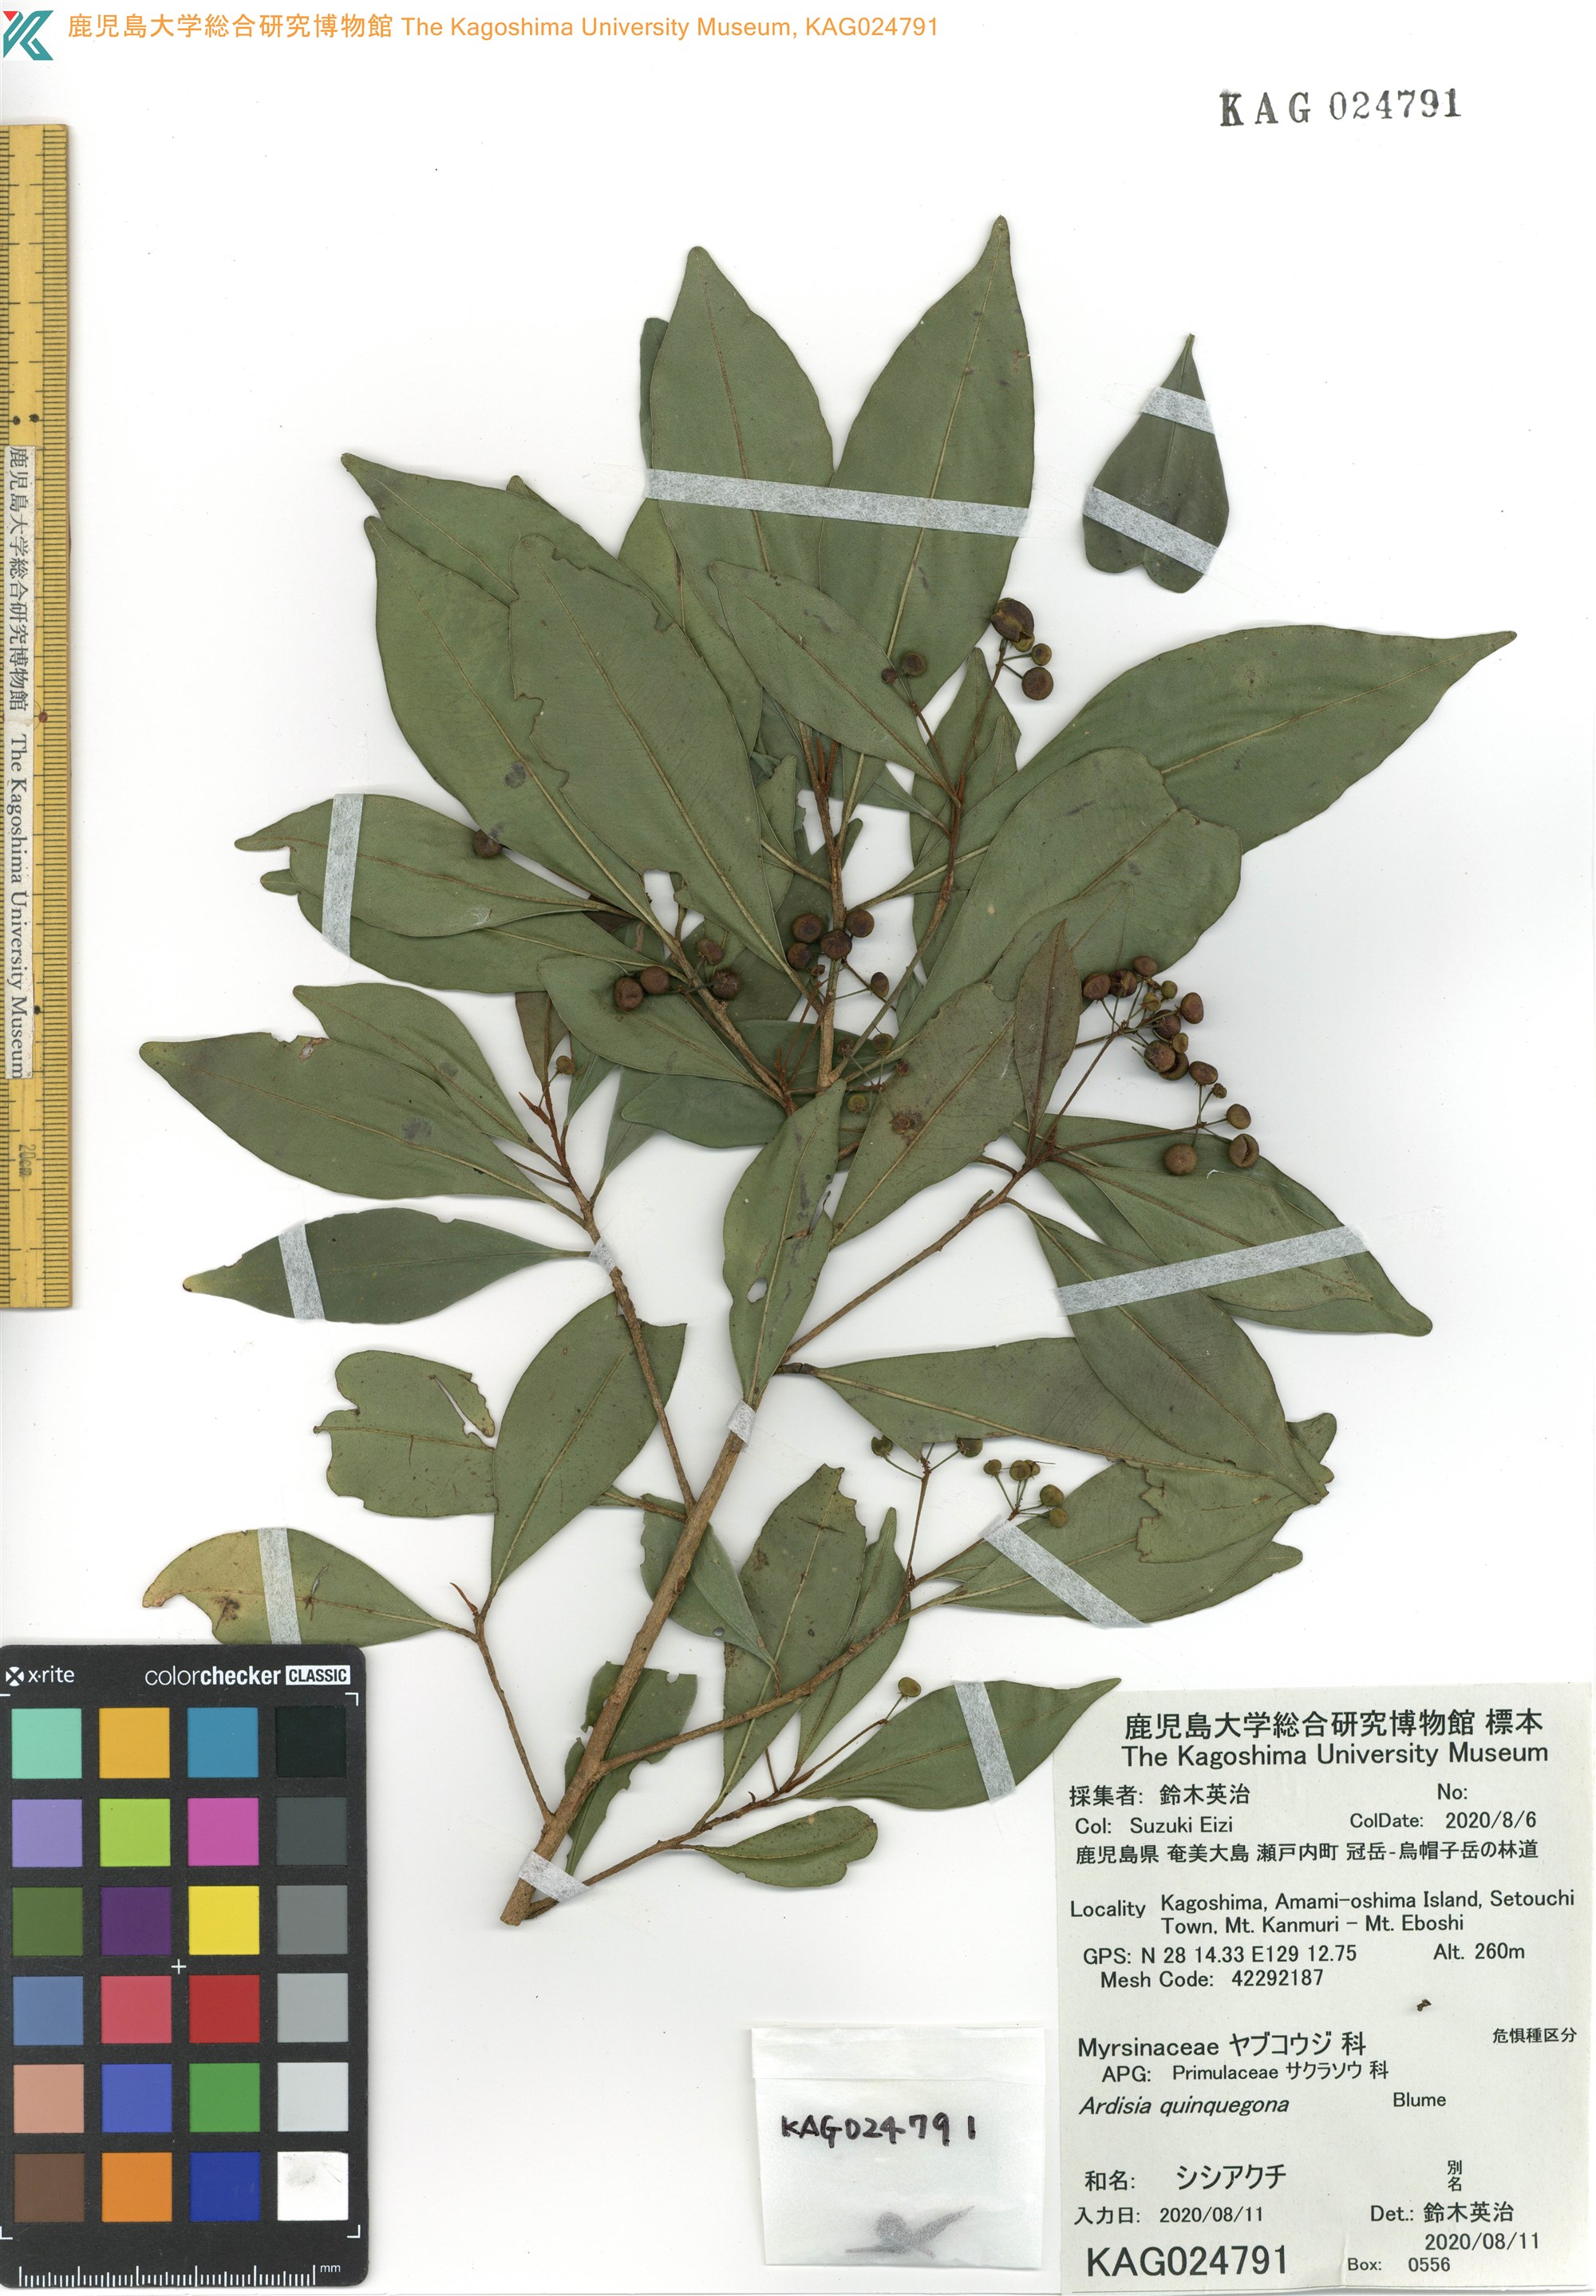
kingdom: Plantae
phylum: Tracheophyta
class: Magnoliopsida
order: Ericales
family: Primulaceae
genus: Ardisia
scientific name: Ardisia quinquegona
